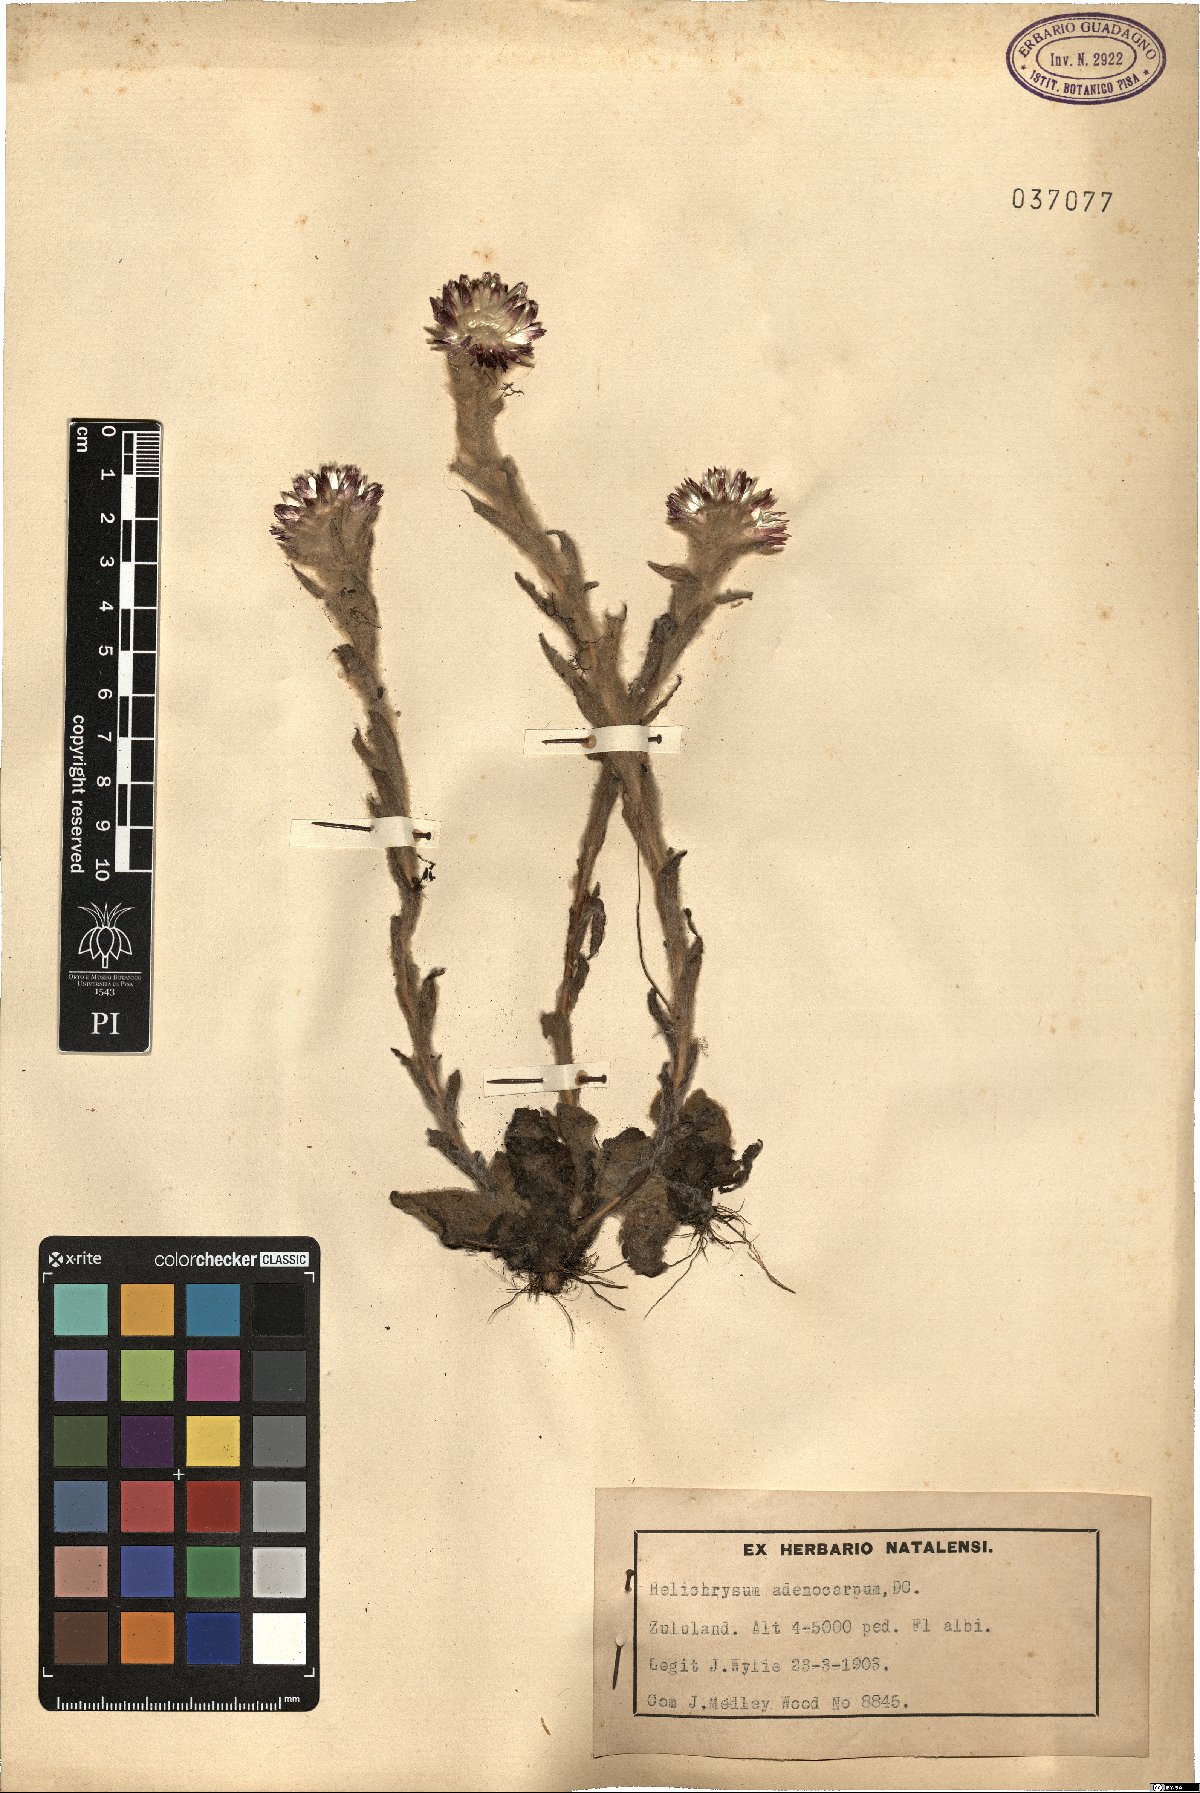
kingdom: Plantae
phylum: Tracheophyta
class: Magnoliopsida
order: Asterales
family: Asteraceae
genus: Helichrysum
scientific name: Helichrysum adenocarpum
